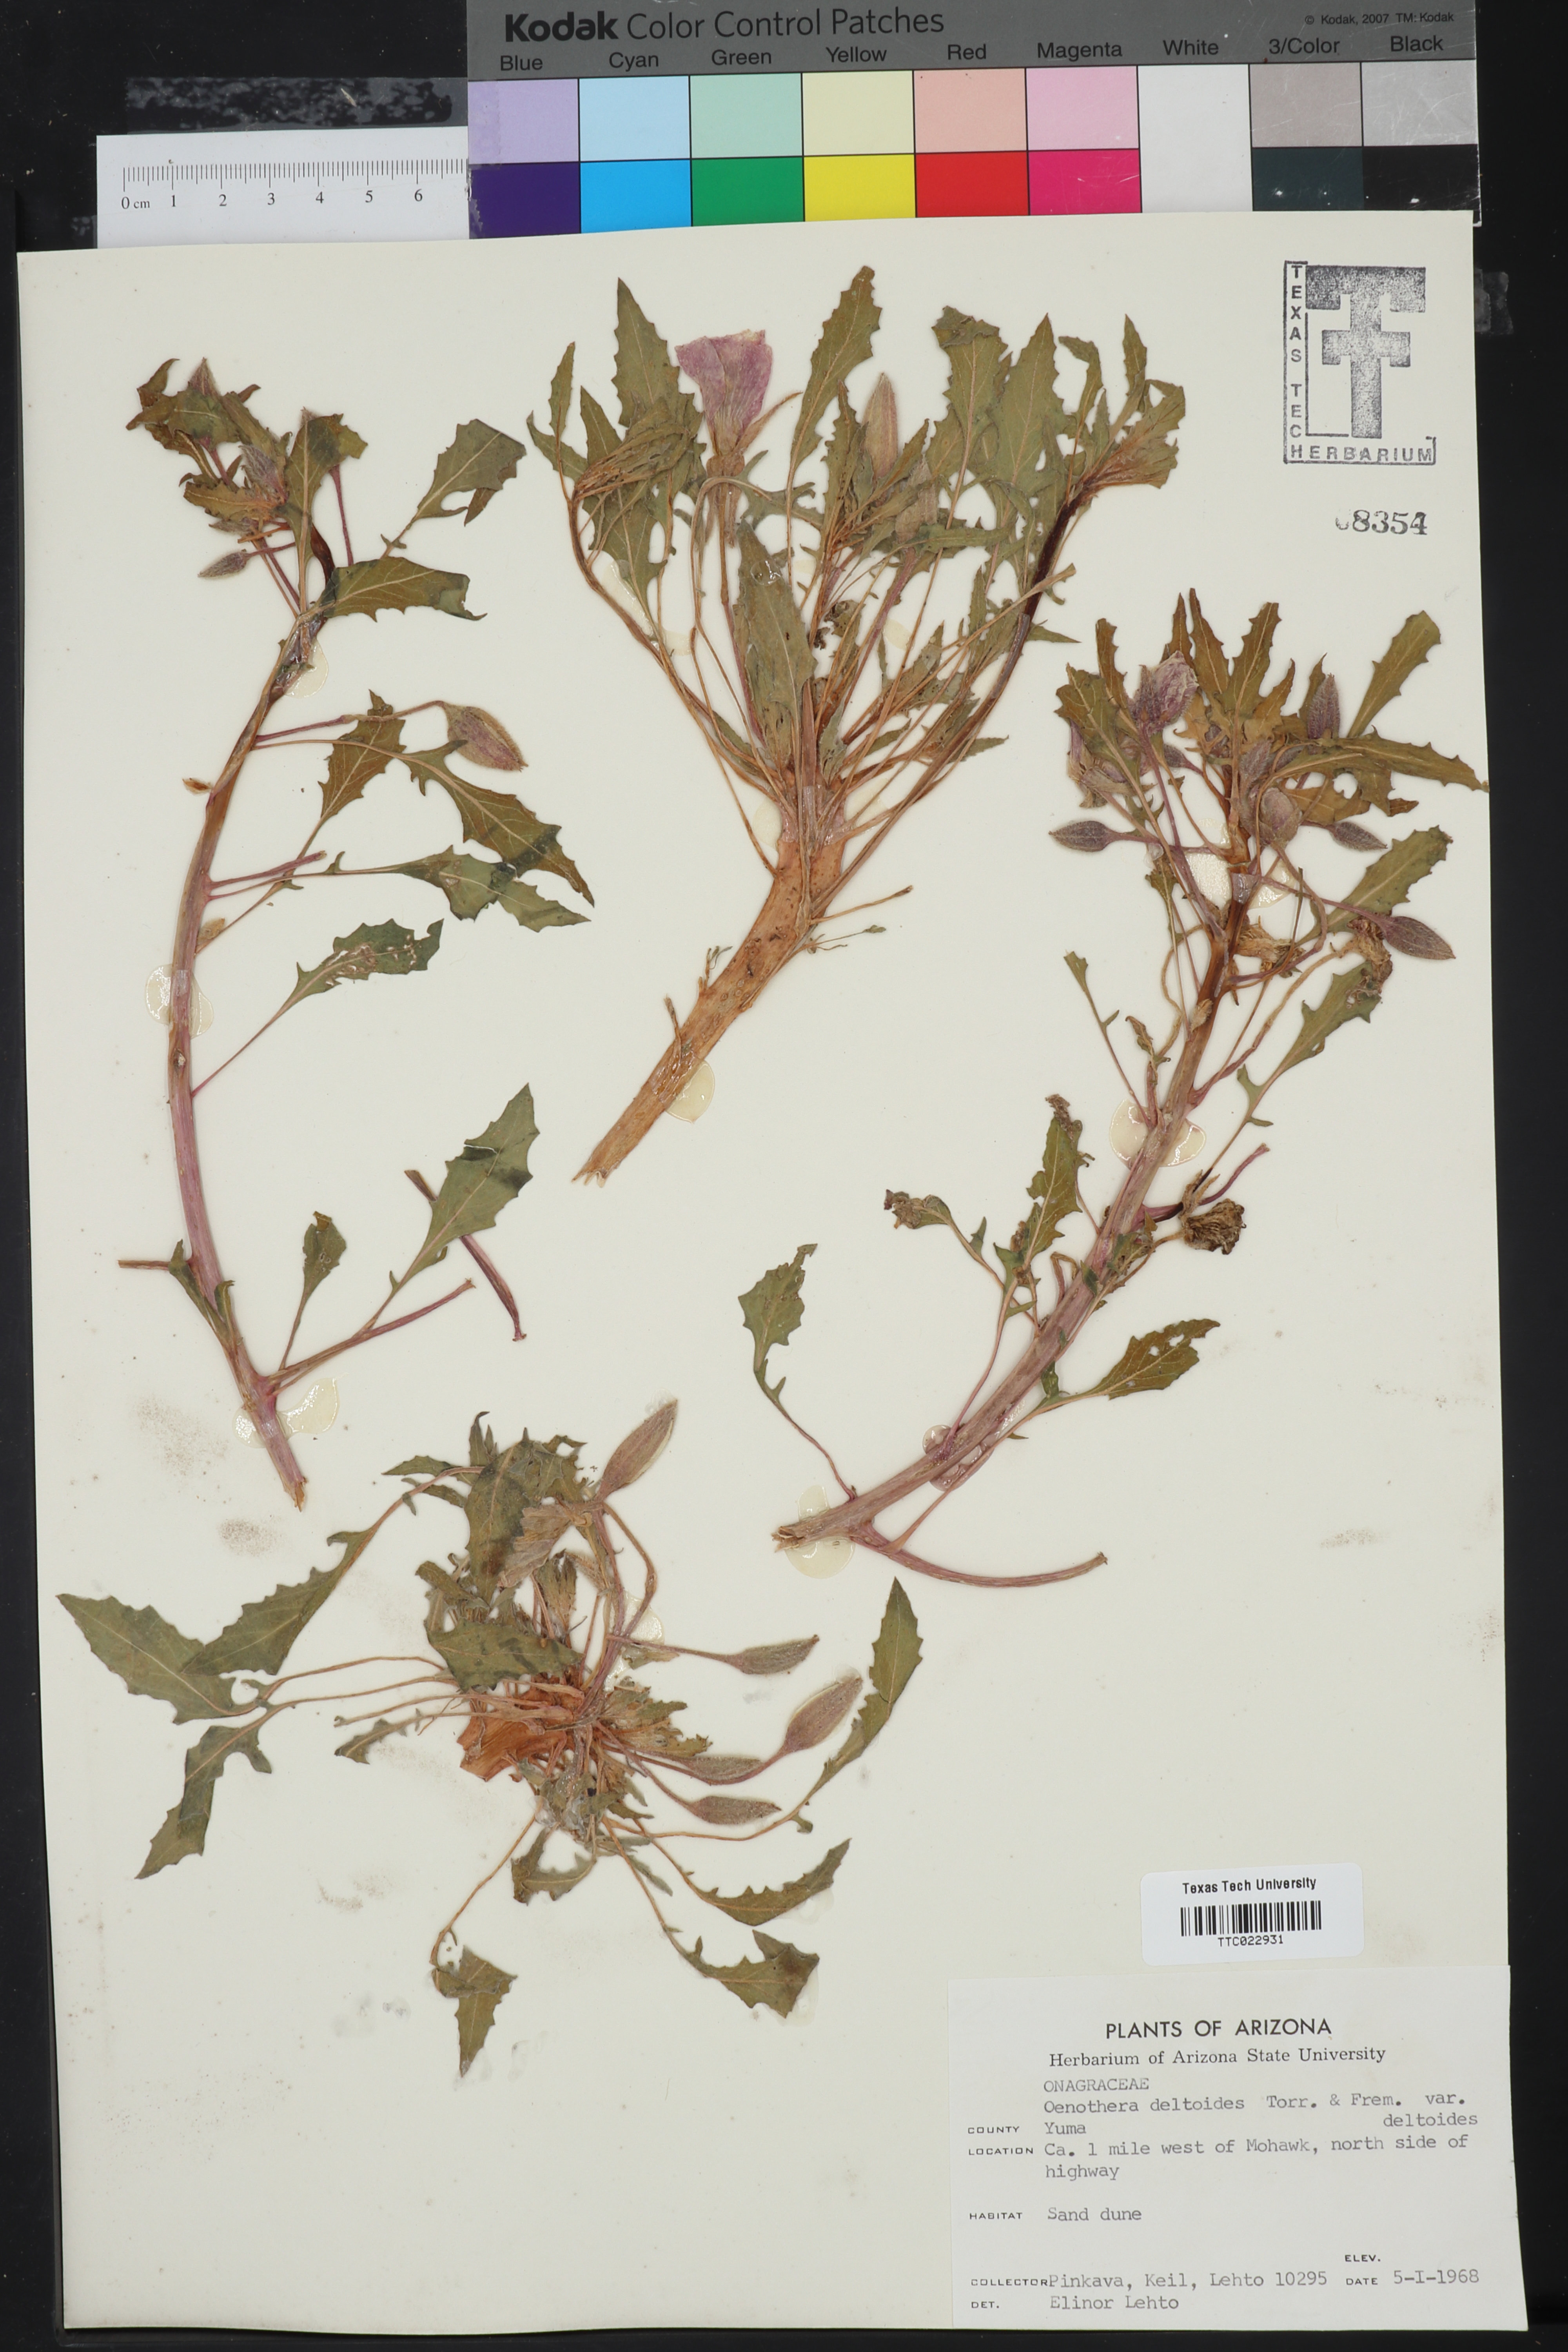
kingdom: Plantae
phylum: Tracheophyta
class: Magnoliopsida
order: Myrtales
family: Onagraceae
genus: Oenothera
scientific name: Oenothera deltoides
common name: Basket evening-primrose
